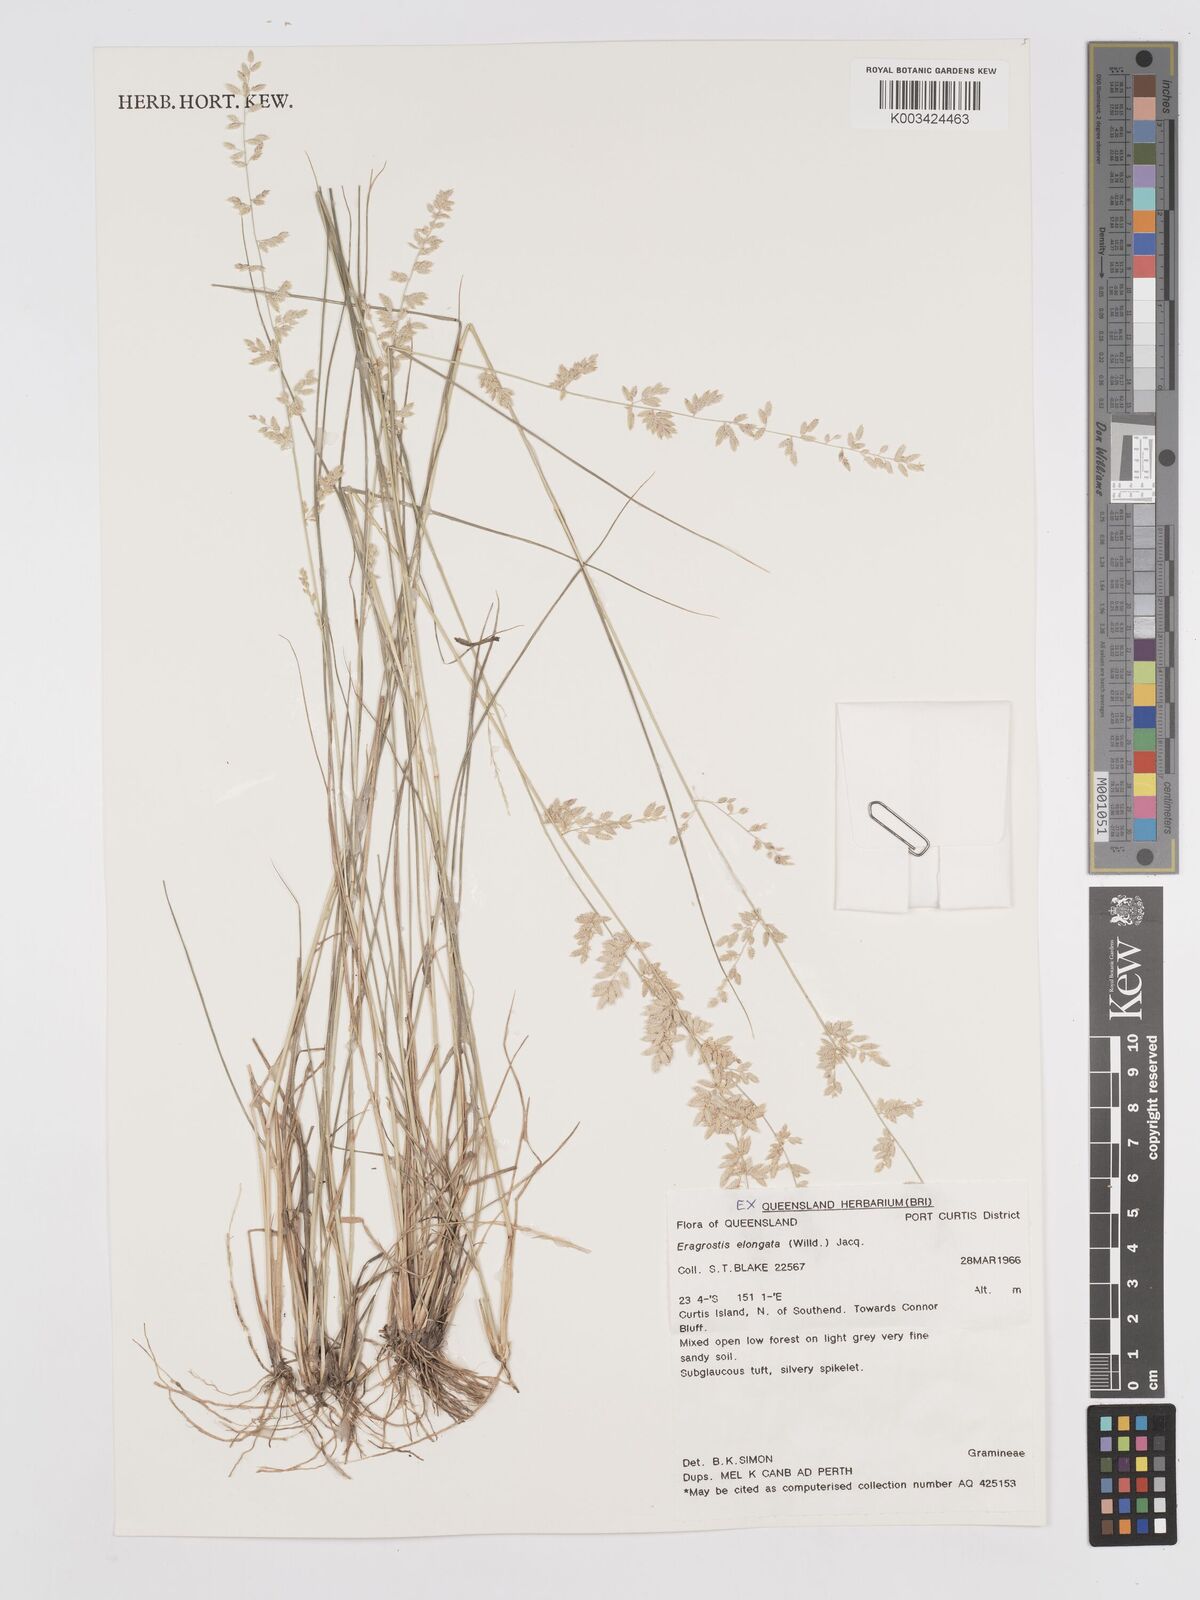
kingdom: Plantae
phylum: Tracheophyta
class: Liliopsida
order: Poales
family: Poaceae
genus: Eragrostis
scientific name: Eragrostis elongata
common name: Long lovegrass
